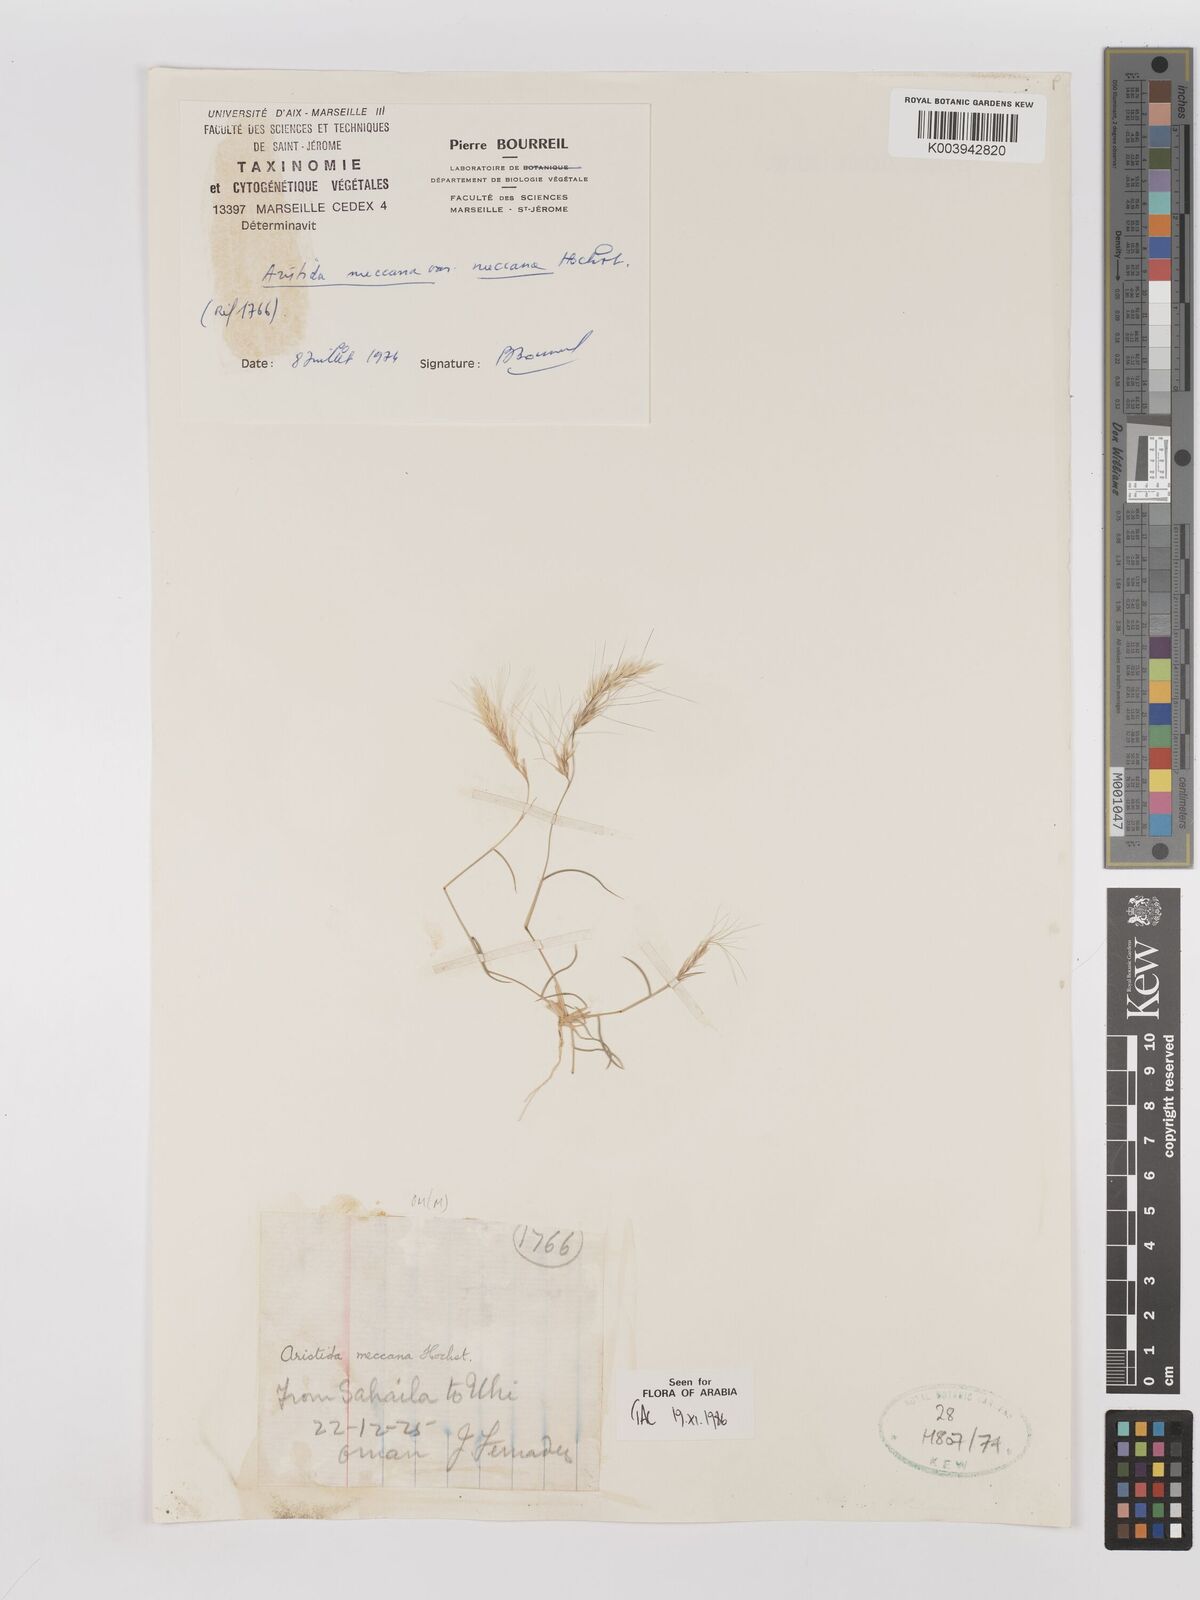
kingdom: Plantae
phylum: Tracheophyta
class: Liliopsida
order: Poales
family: Poaceae
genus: Aristida
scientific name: Aristida mutabilis
